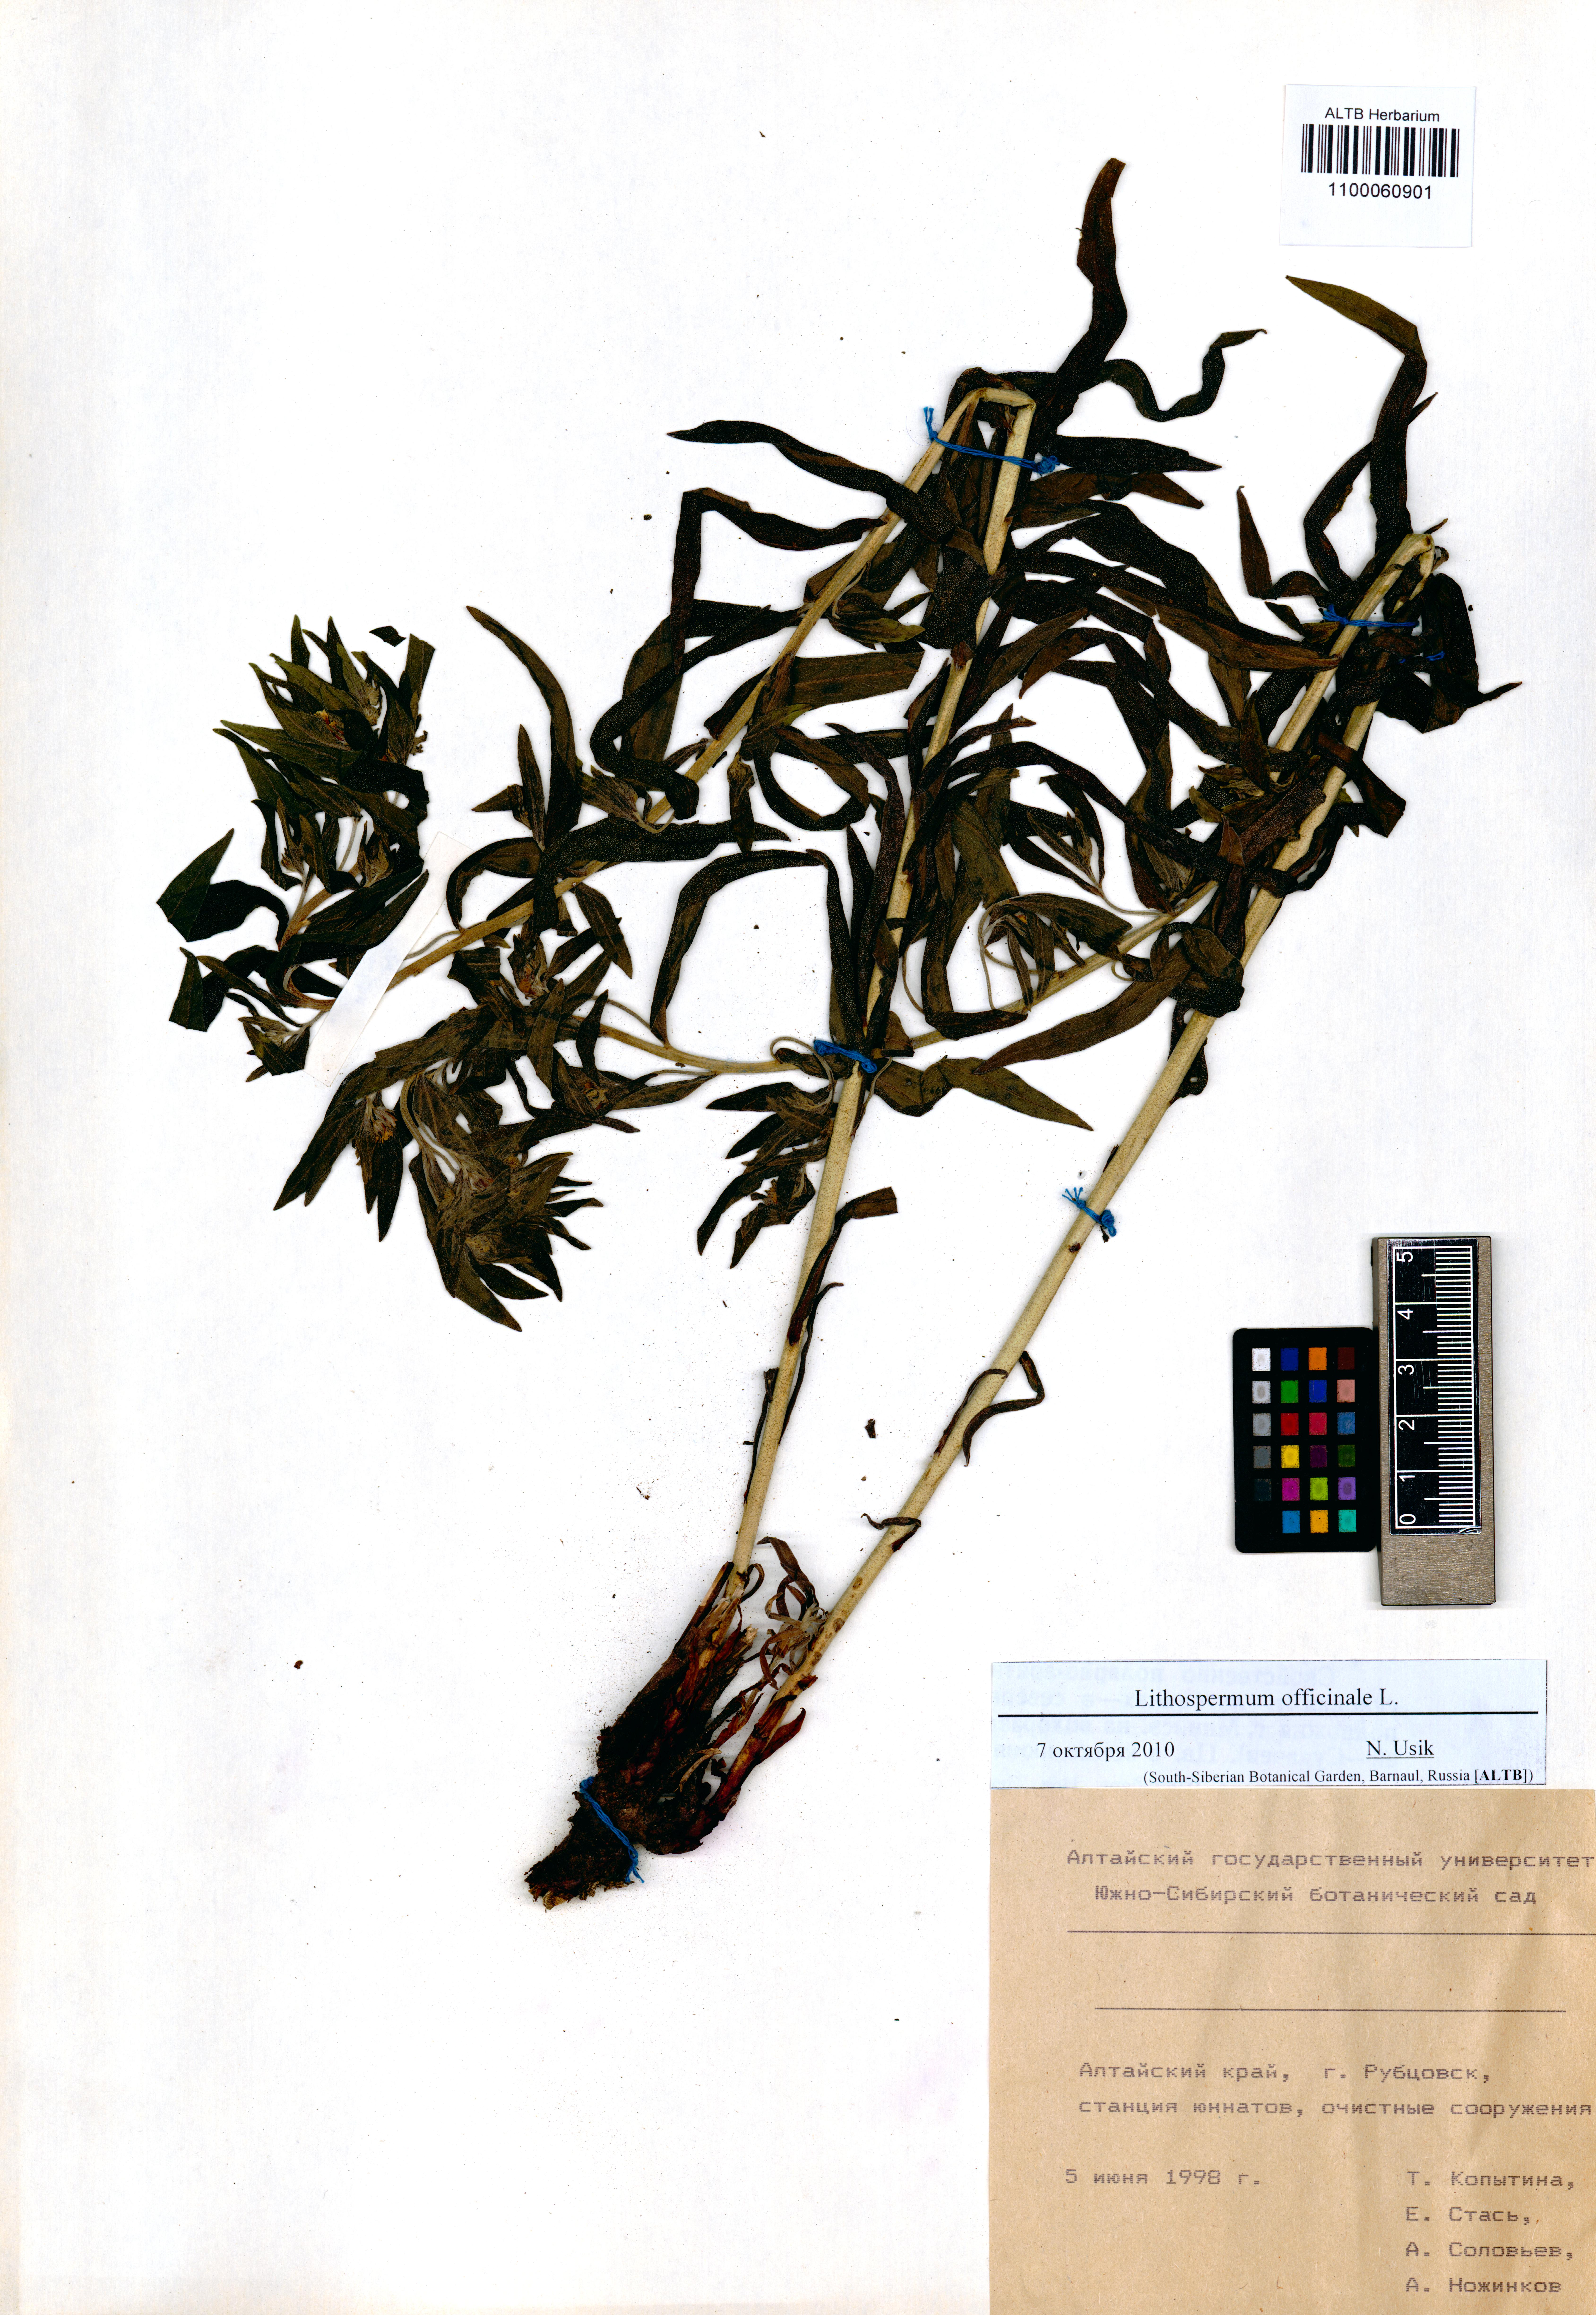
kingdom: Plantae
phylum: Tracheophyta
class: Magnoliopsida
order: Boraginales
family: Boraginaceae
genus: Lithospermum
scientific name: Lithospermum officinale
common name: Common gromwell
